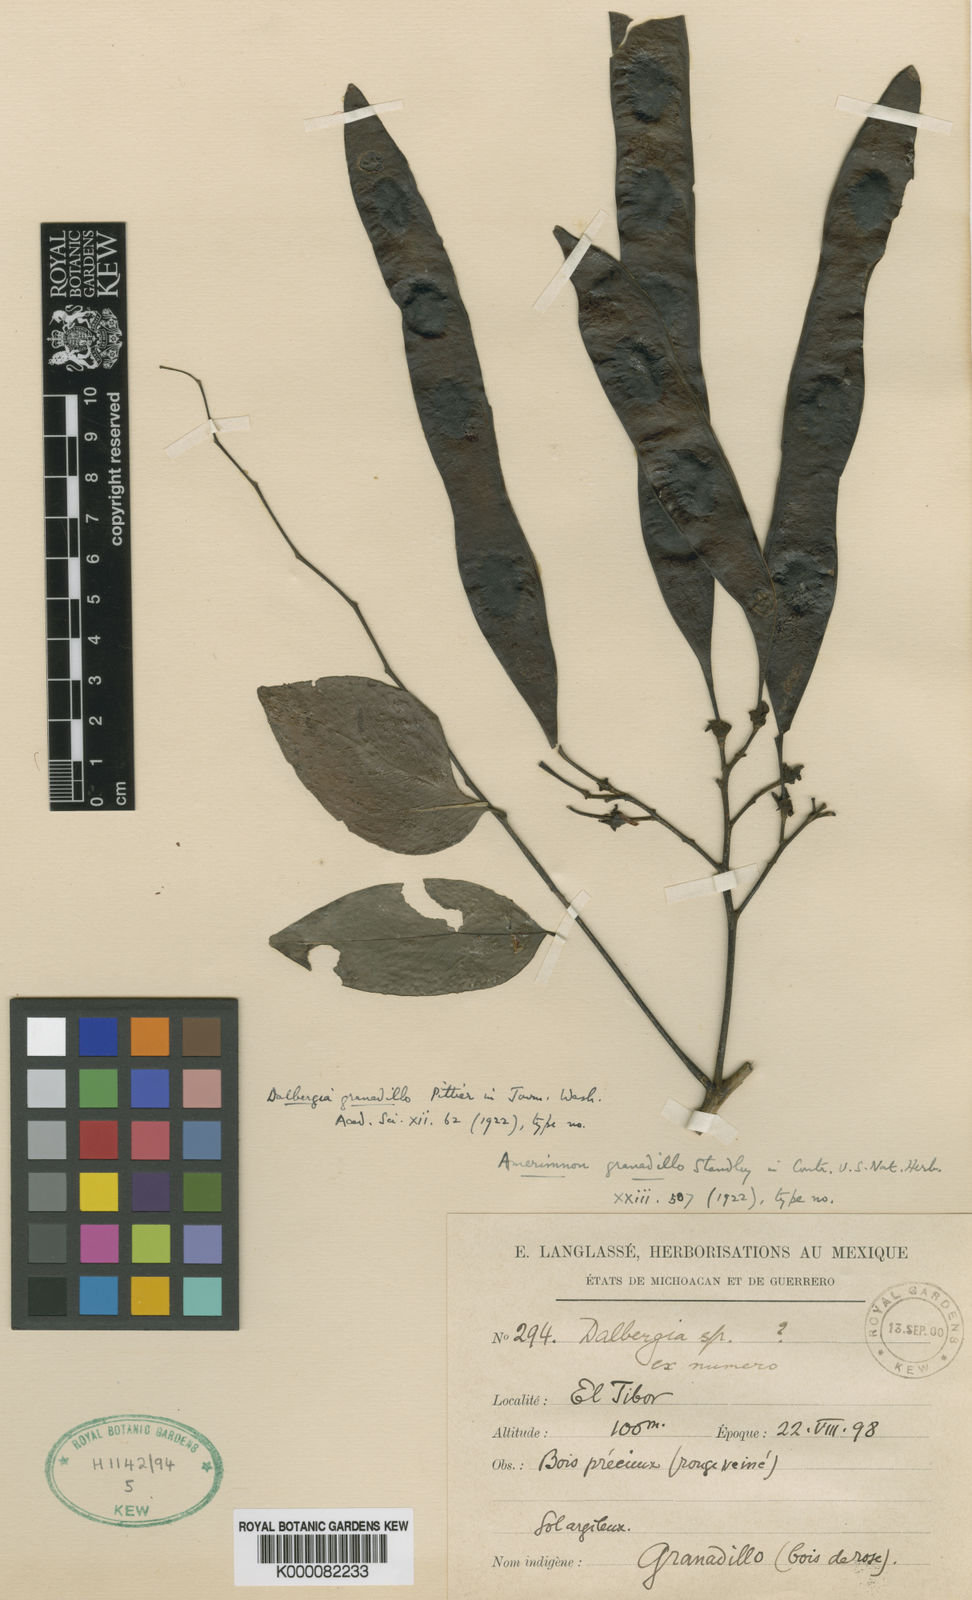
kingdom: Plantae
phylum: Tracheophyta
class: Magnoliopsida
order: Fabales
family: Fabaceae
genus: Dalbergia
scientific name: Dalbergia granadillo
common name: Cocobolo
